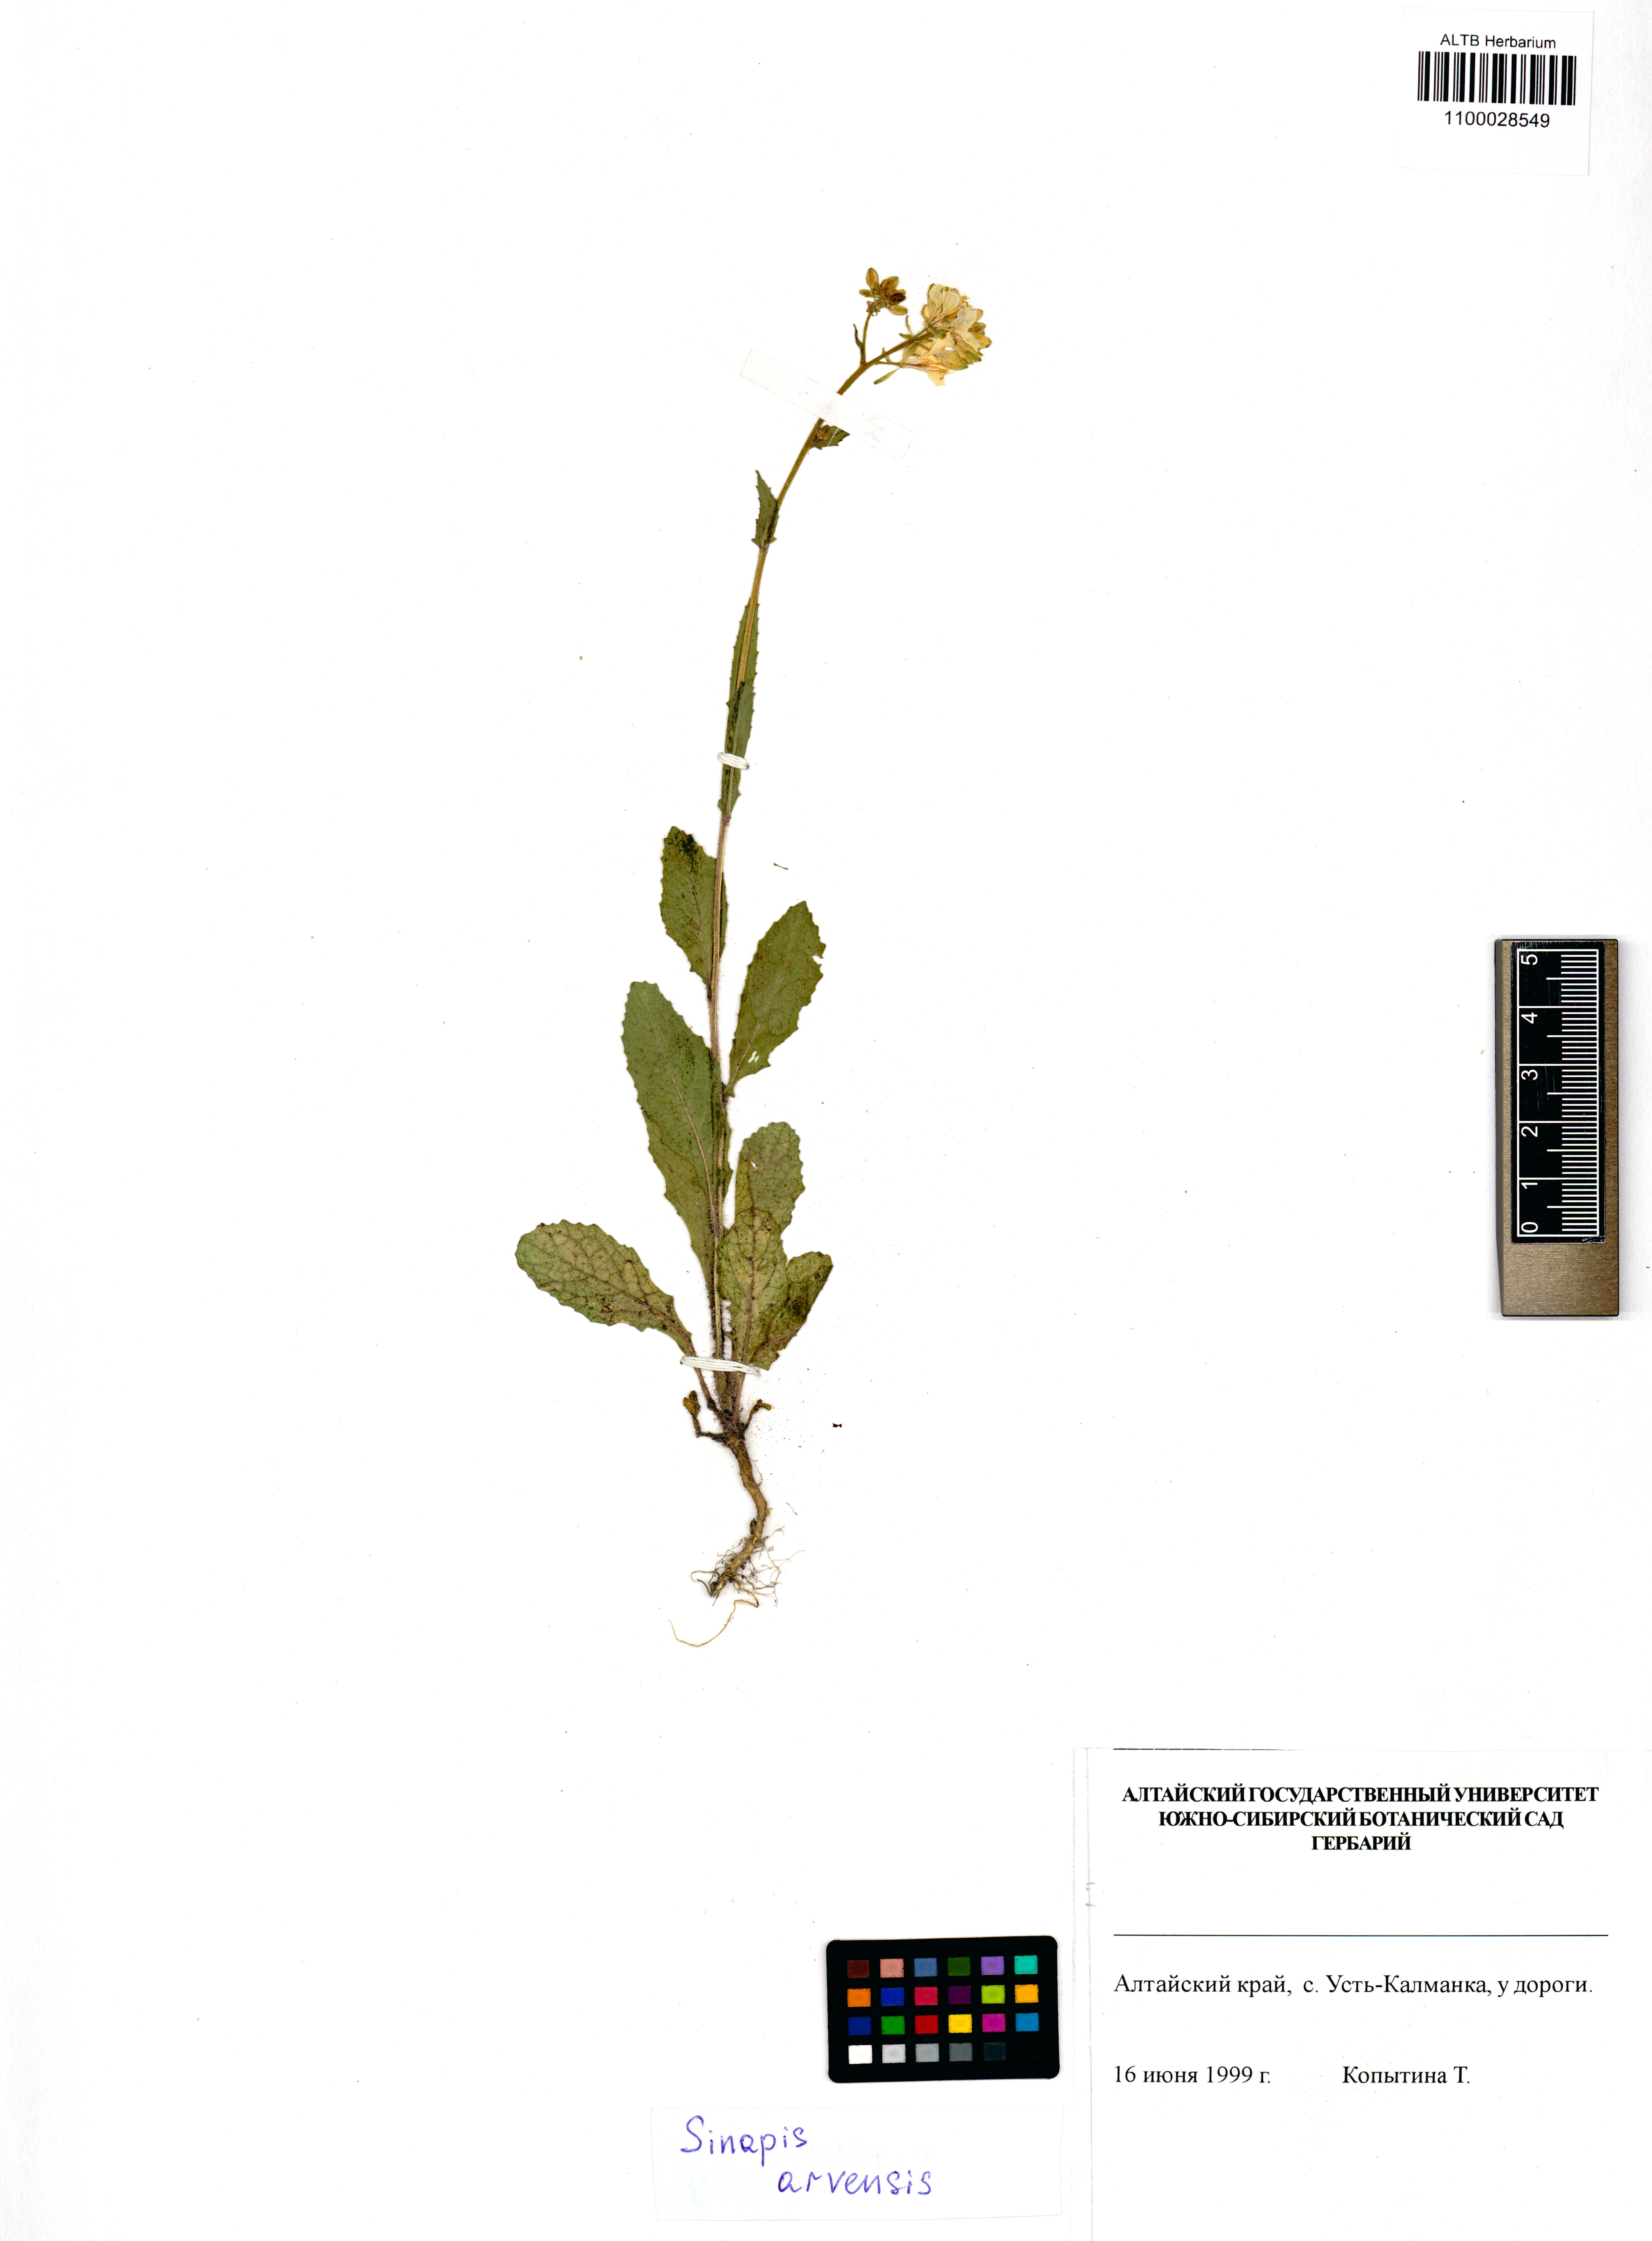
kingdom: Plantae
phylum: Tracheophyta
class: Magnoliopsida
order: Brassicales
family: Brassicaceae
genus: Sinapis
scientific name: Sinapis arvensis
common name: Charlock
